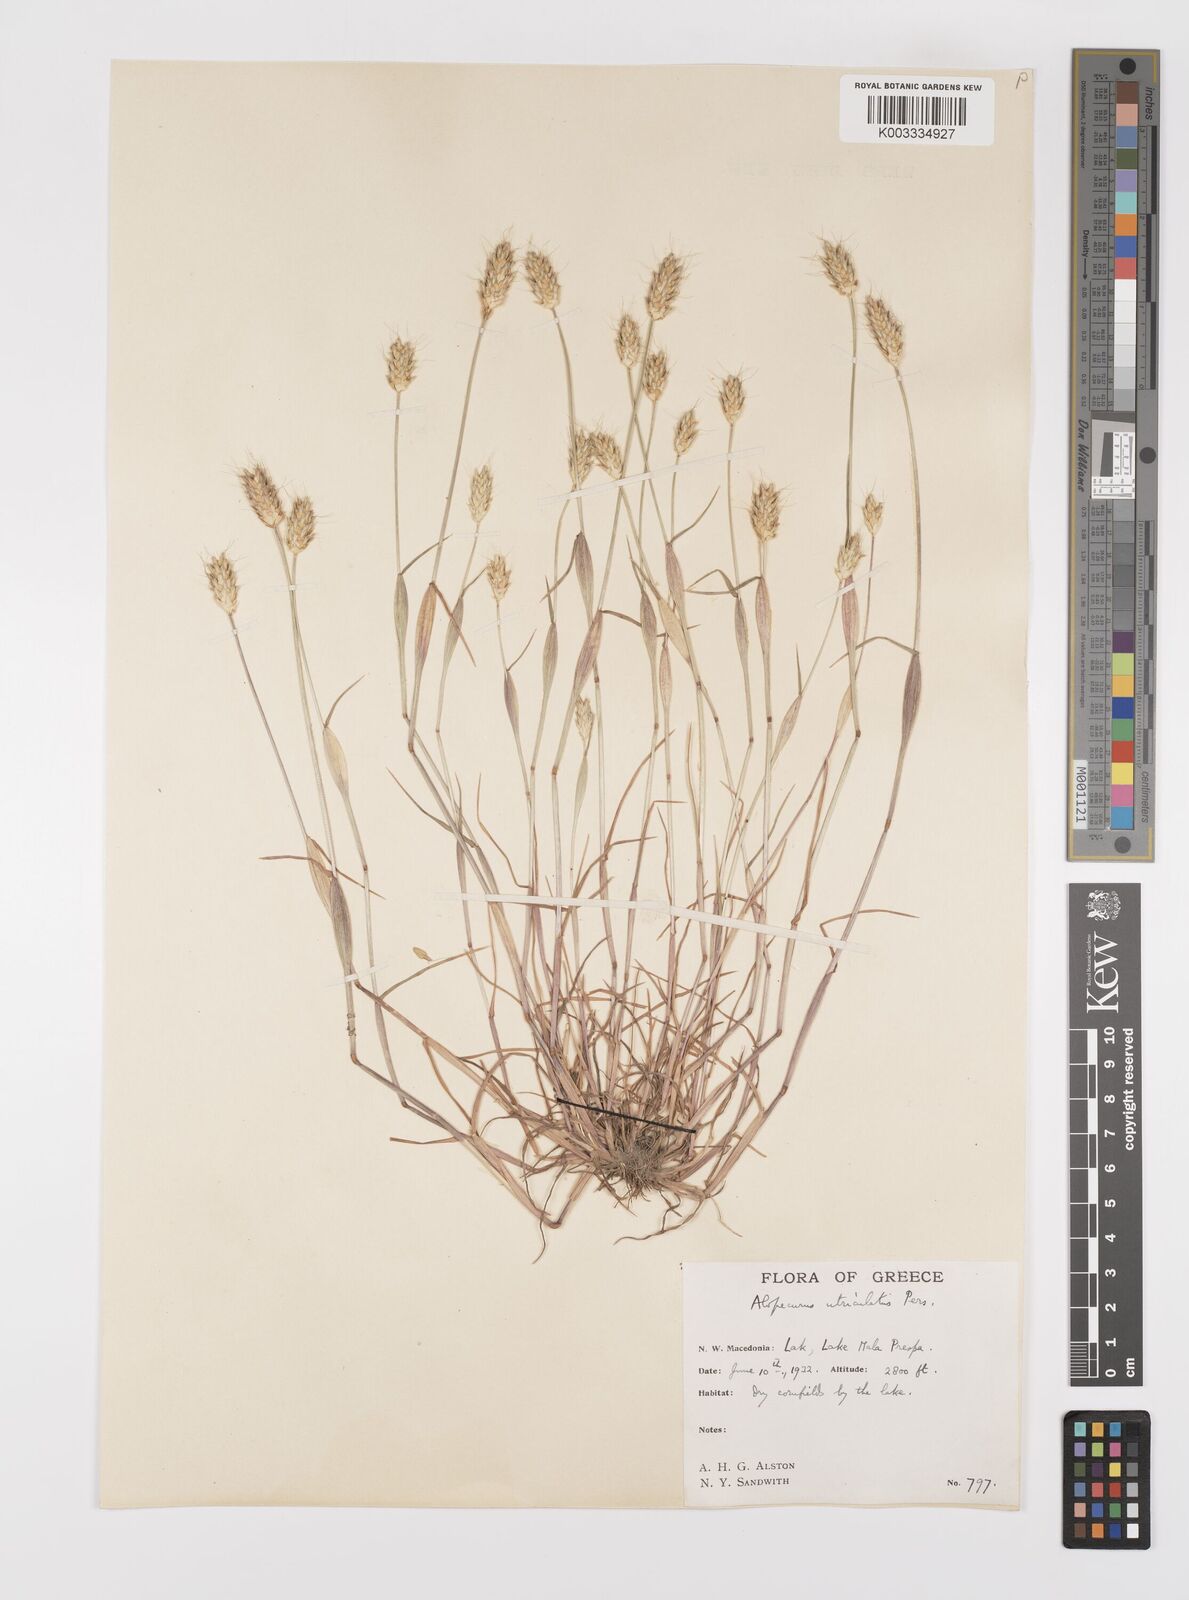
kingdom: Plantae
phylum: Tracheophyta
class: Liliopsida
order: Poales
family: Poaceae
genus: Alopecurus
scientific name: Alopecurus rendlei
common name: Rendle's meadow foxtail
